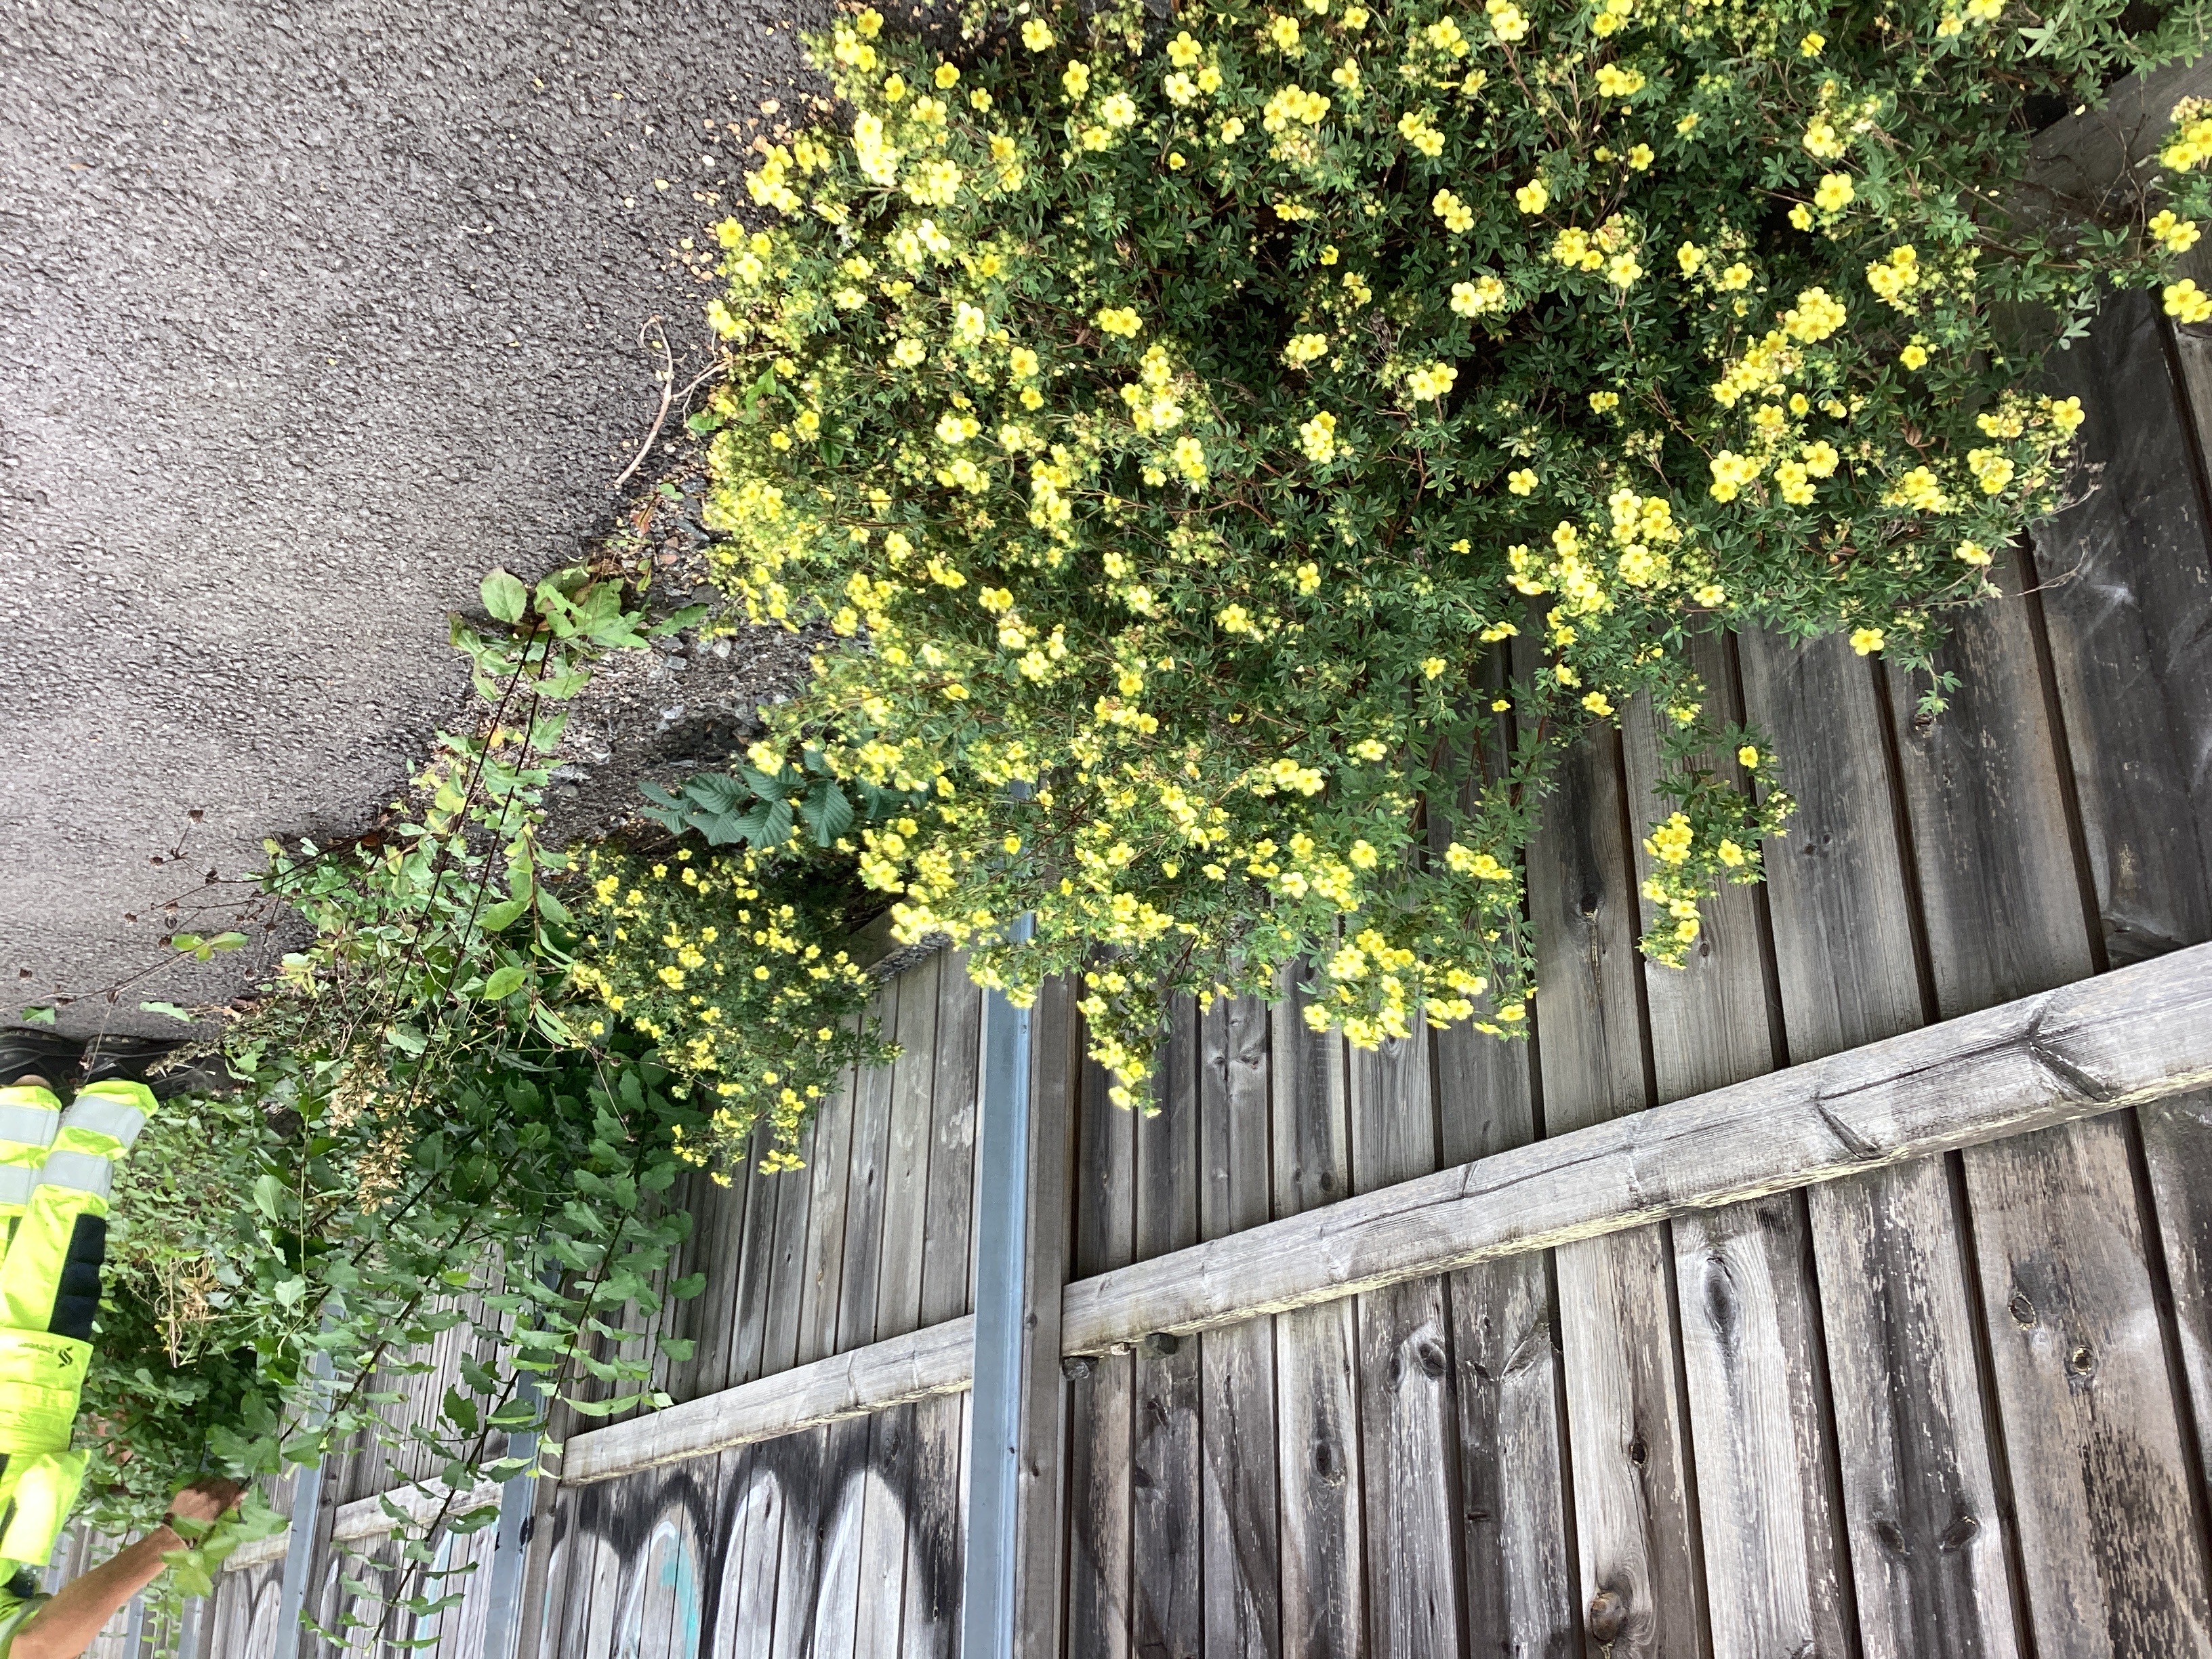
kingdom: Plantae
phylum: Tracheophyta
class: Magnoliopsida
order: Rosales
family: Rosaceae
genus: Dasiphora
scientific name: Dasiphora fruticosa
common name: buskmure
